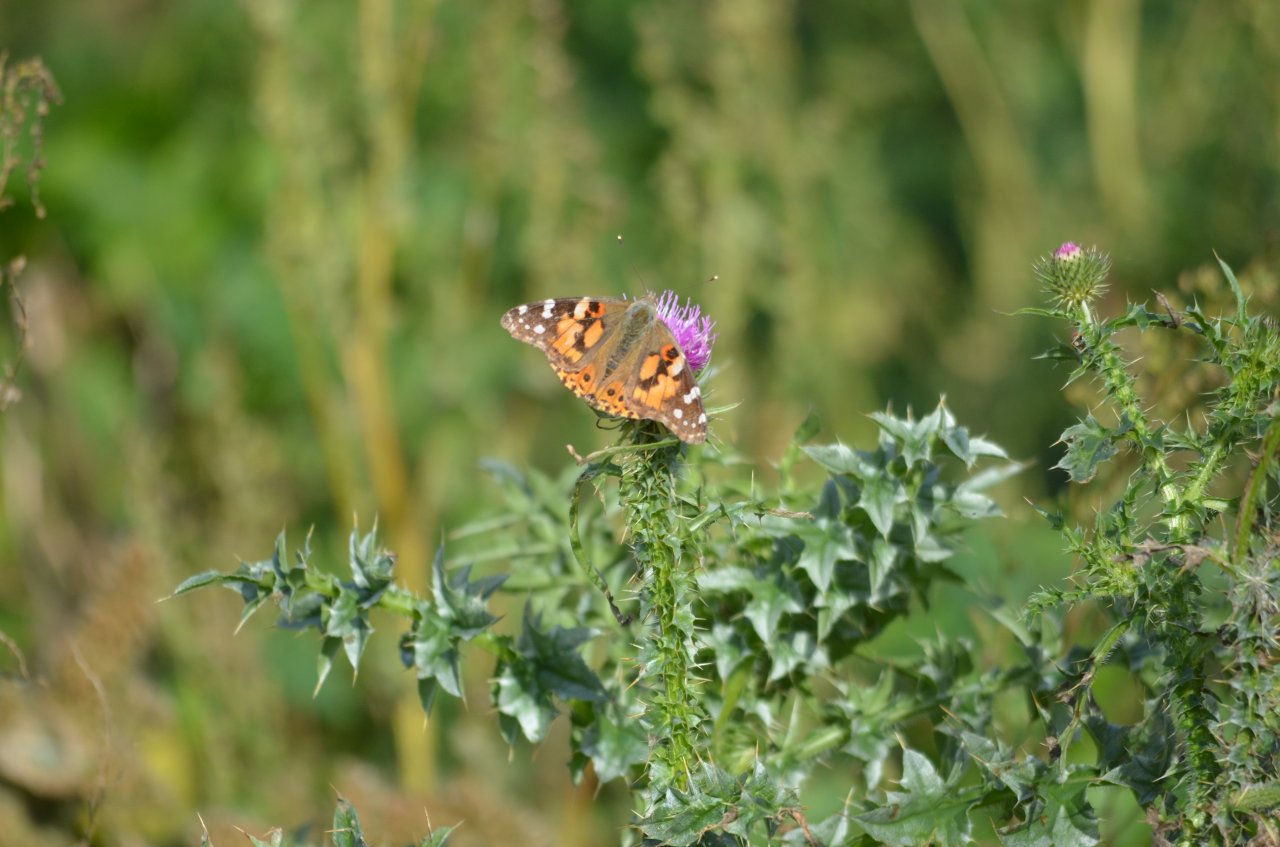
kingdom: Animalia
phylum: Arthropoda
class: Insecta
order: Lepidoptera
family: Nymphalidae
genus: Vanessa
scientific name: Vanessa cardui
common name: Painted Lady
